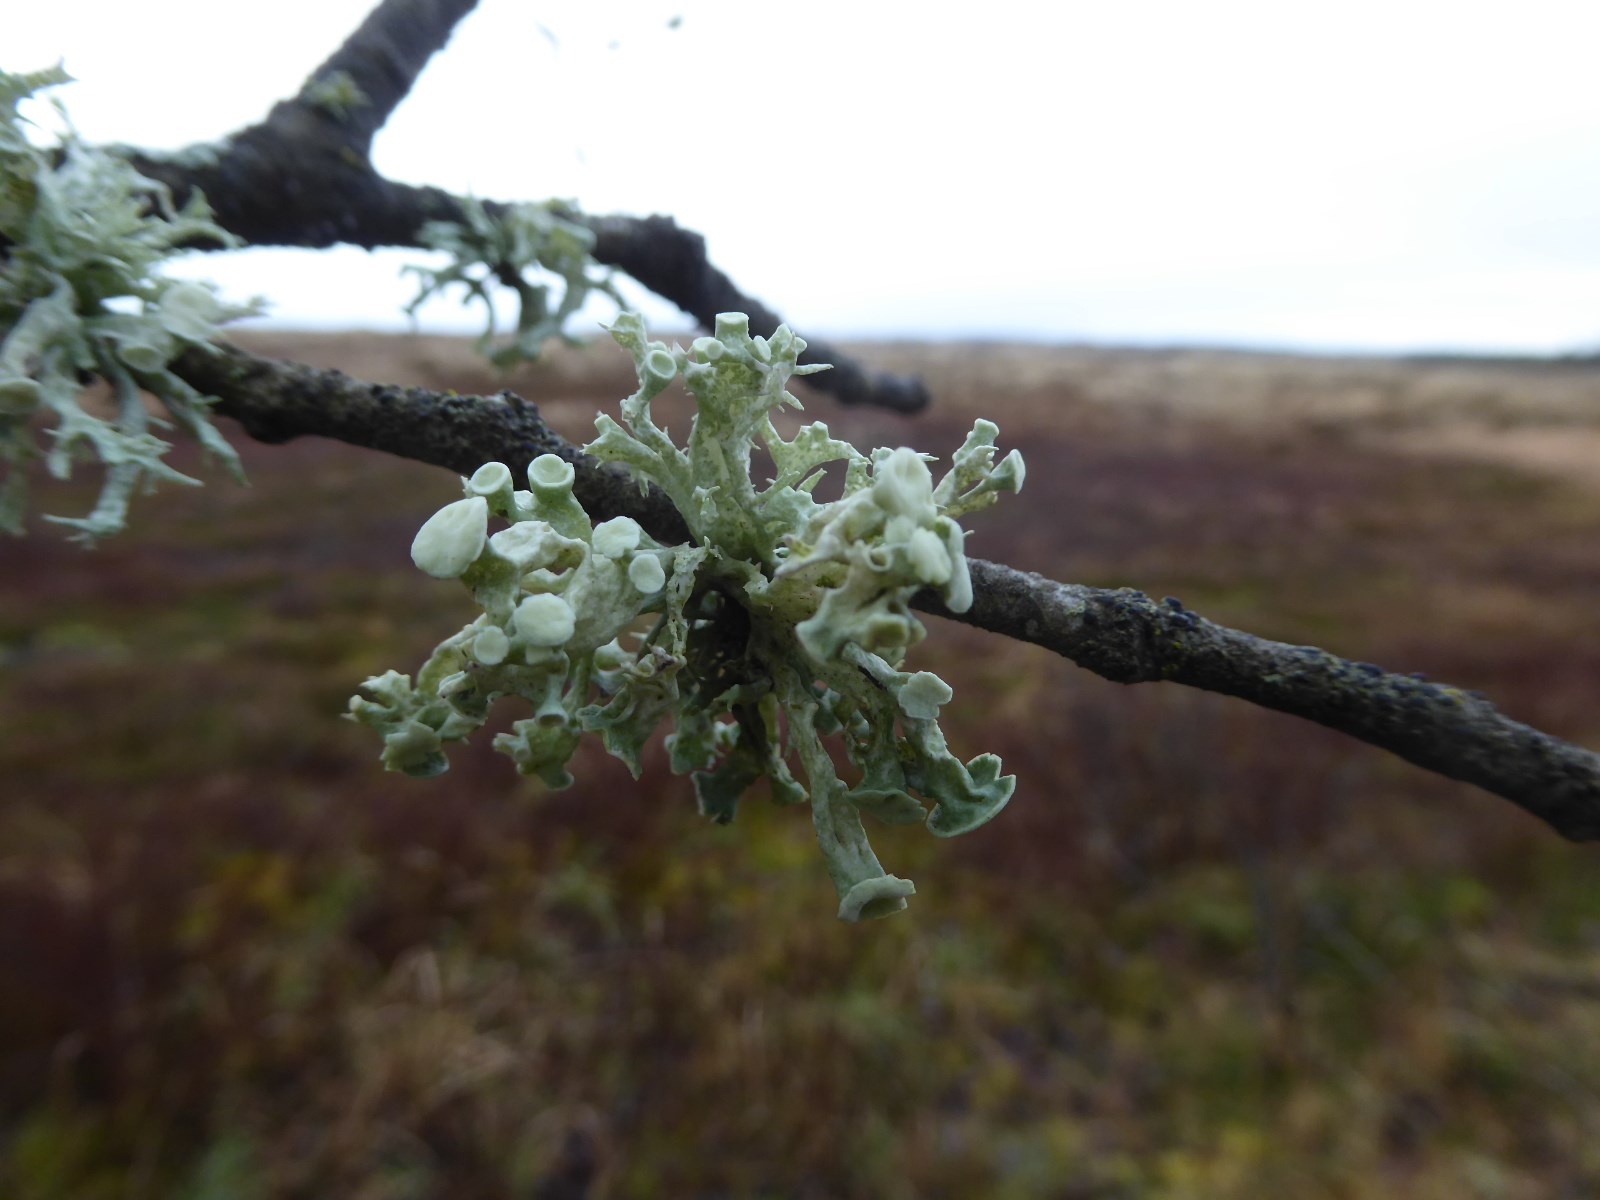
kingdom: Fungi
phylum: Ascomycota
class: Lecanoromycetes
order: Lecanorales
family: Ramalinaceae
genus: Ramalina
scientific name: Ramalina fastigiata
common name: tue-grenlav
